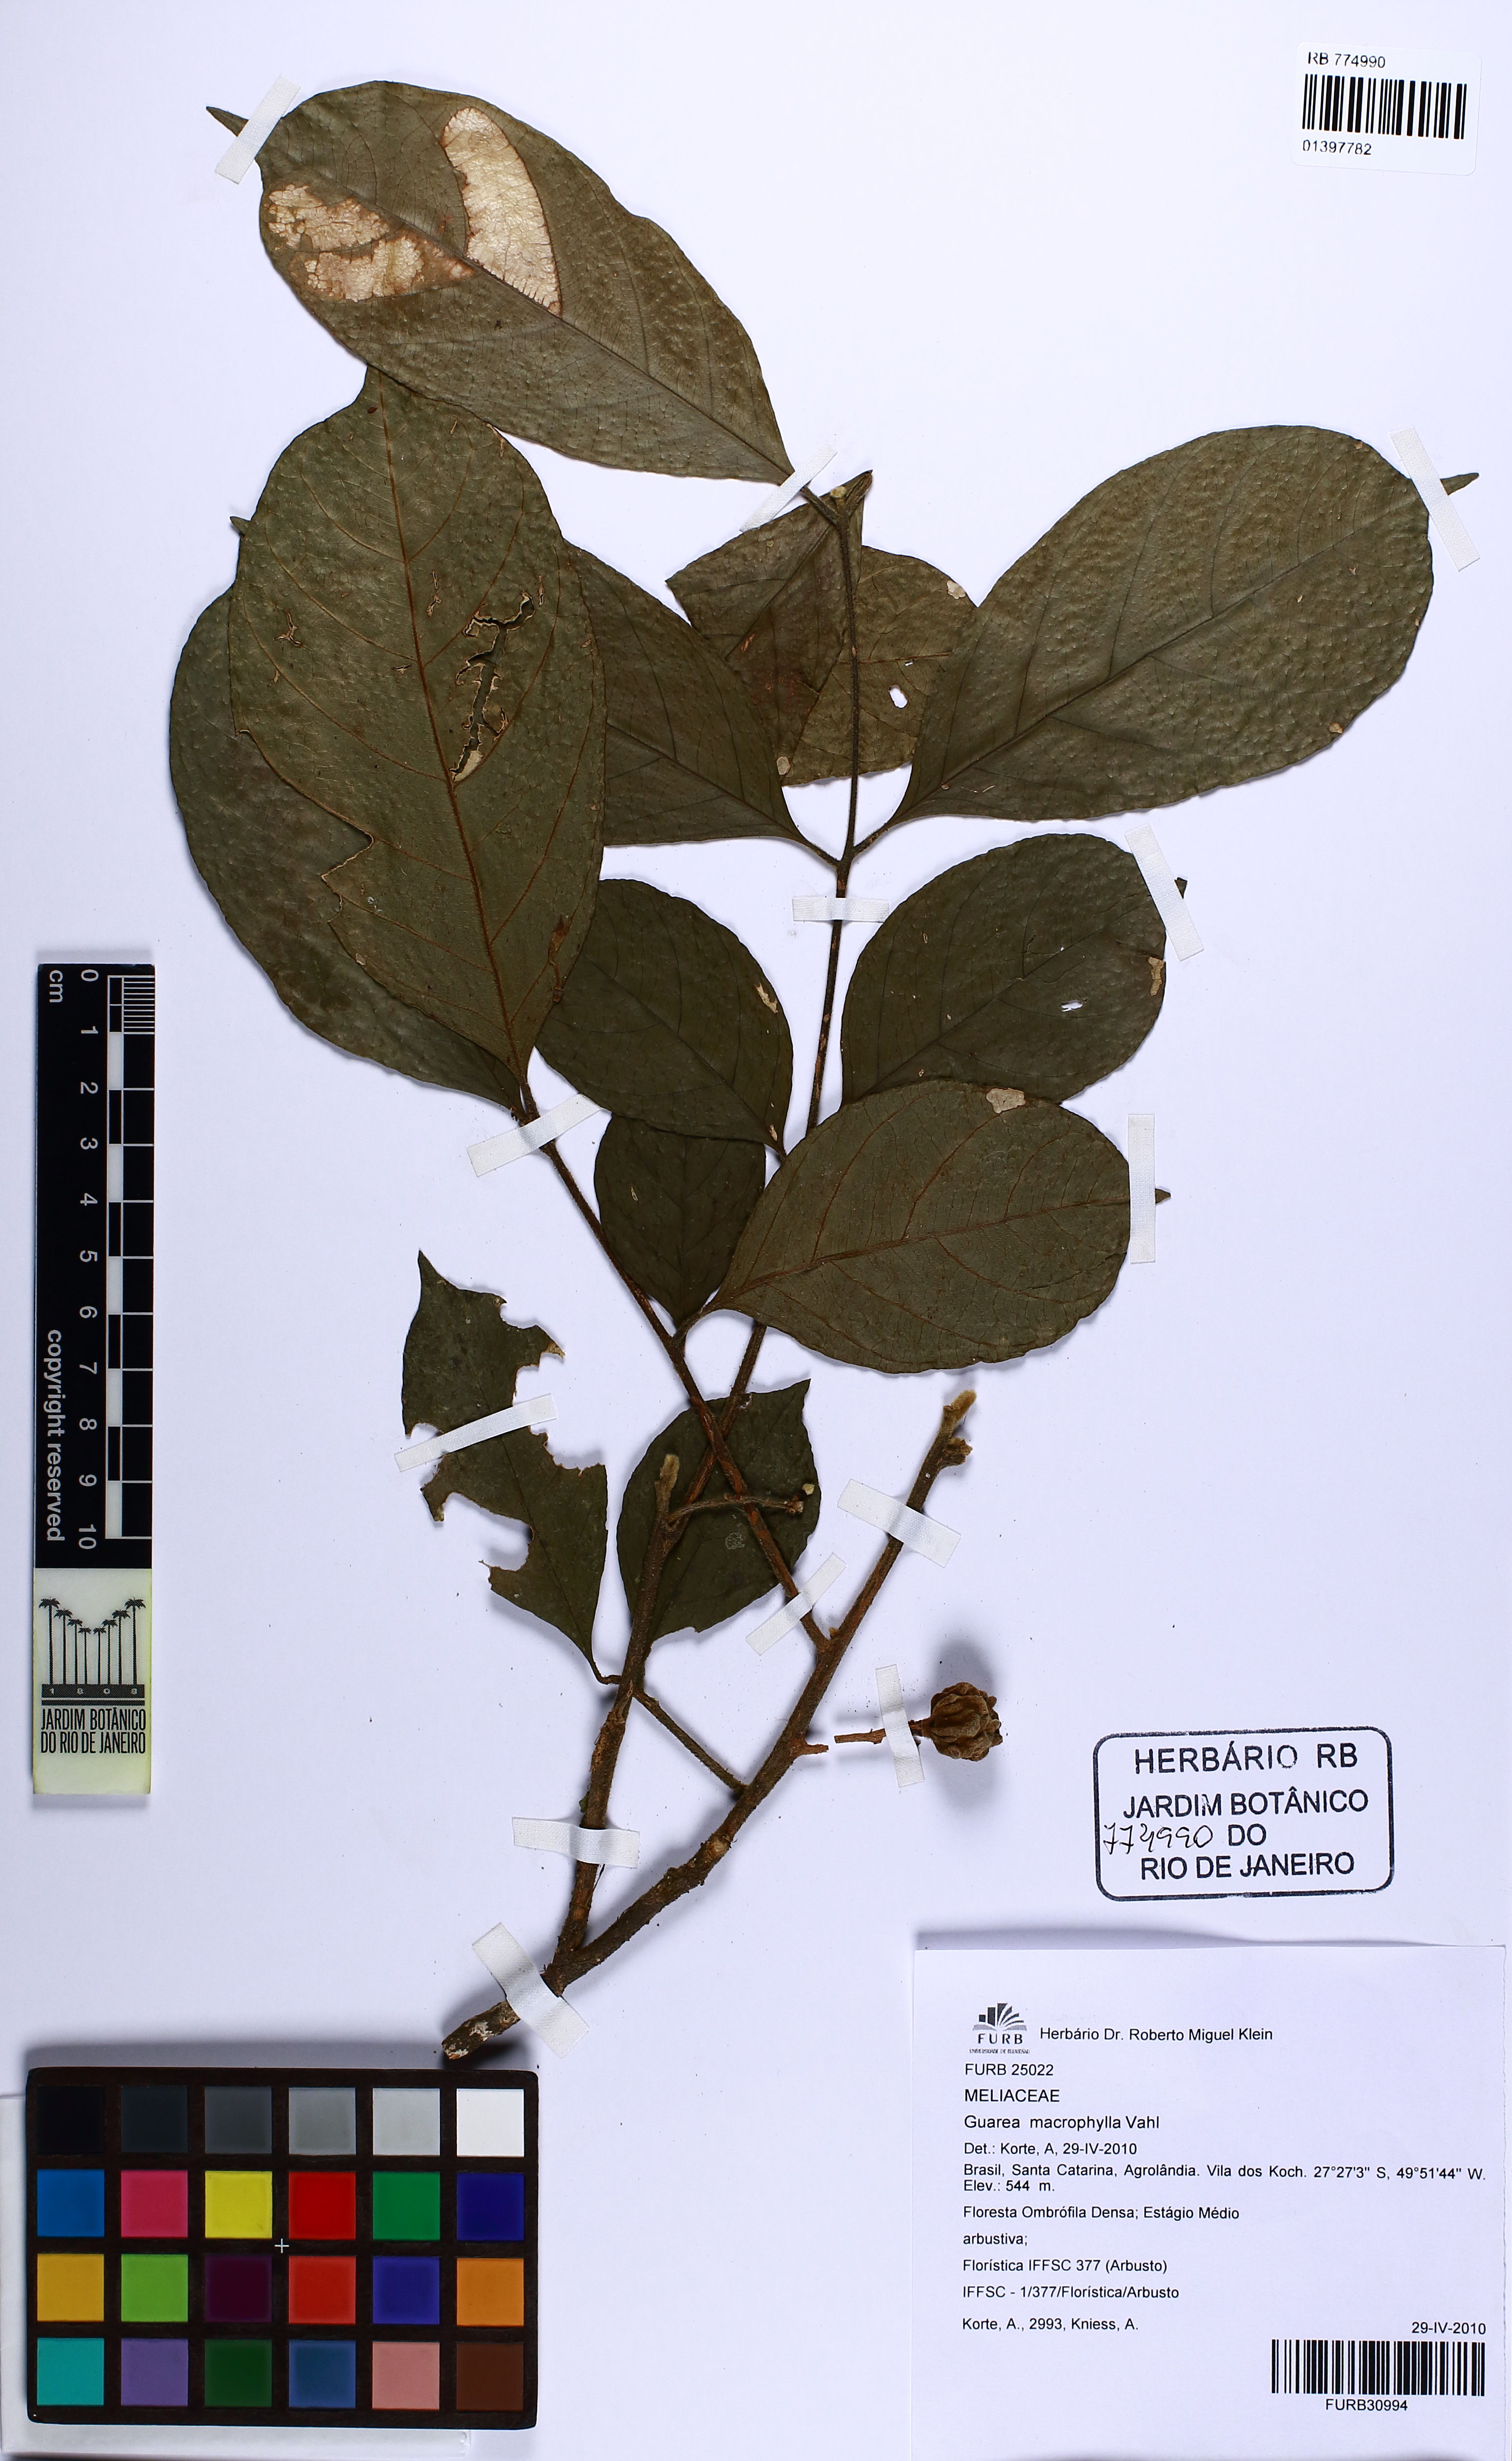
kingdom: Plantae
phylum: Tracheophyta
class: Magnoliopsida
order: Sapindales
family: Meliaceae
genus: Guarea
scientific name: Guarea macrophylla
